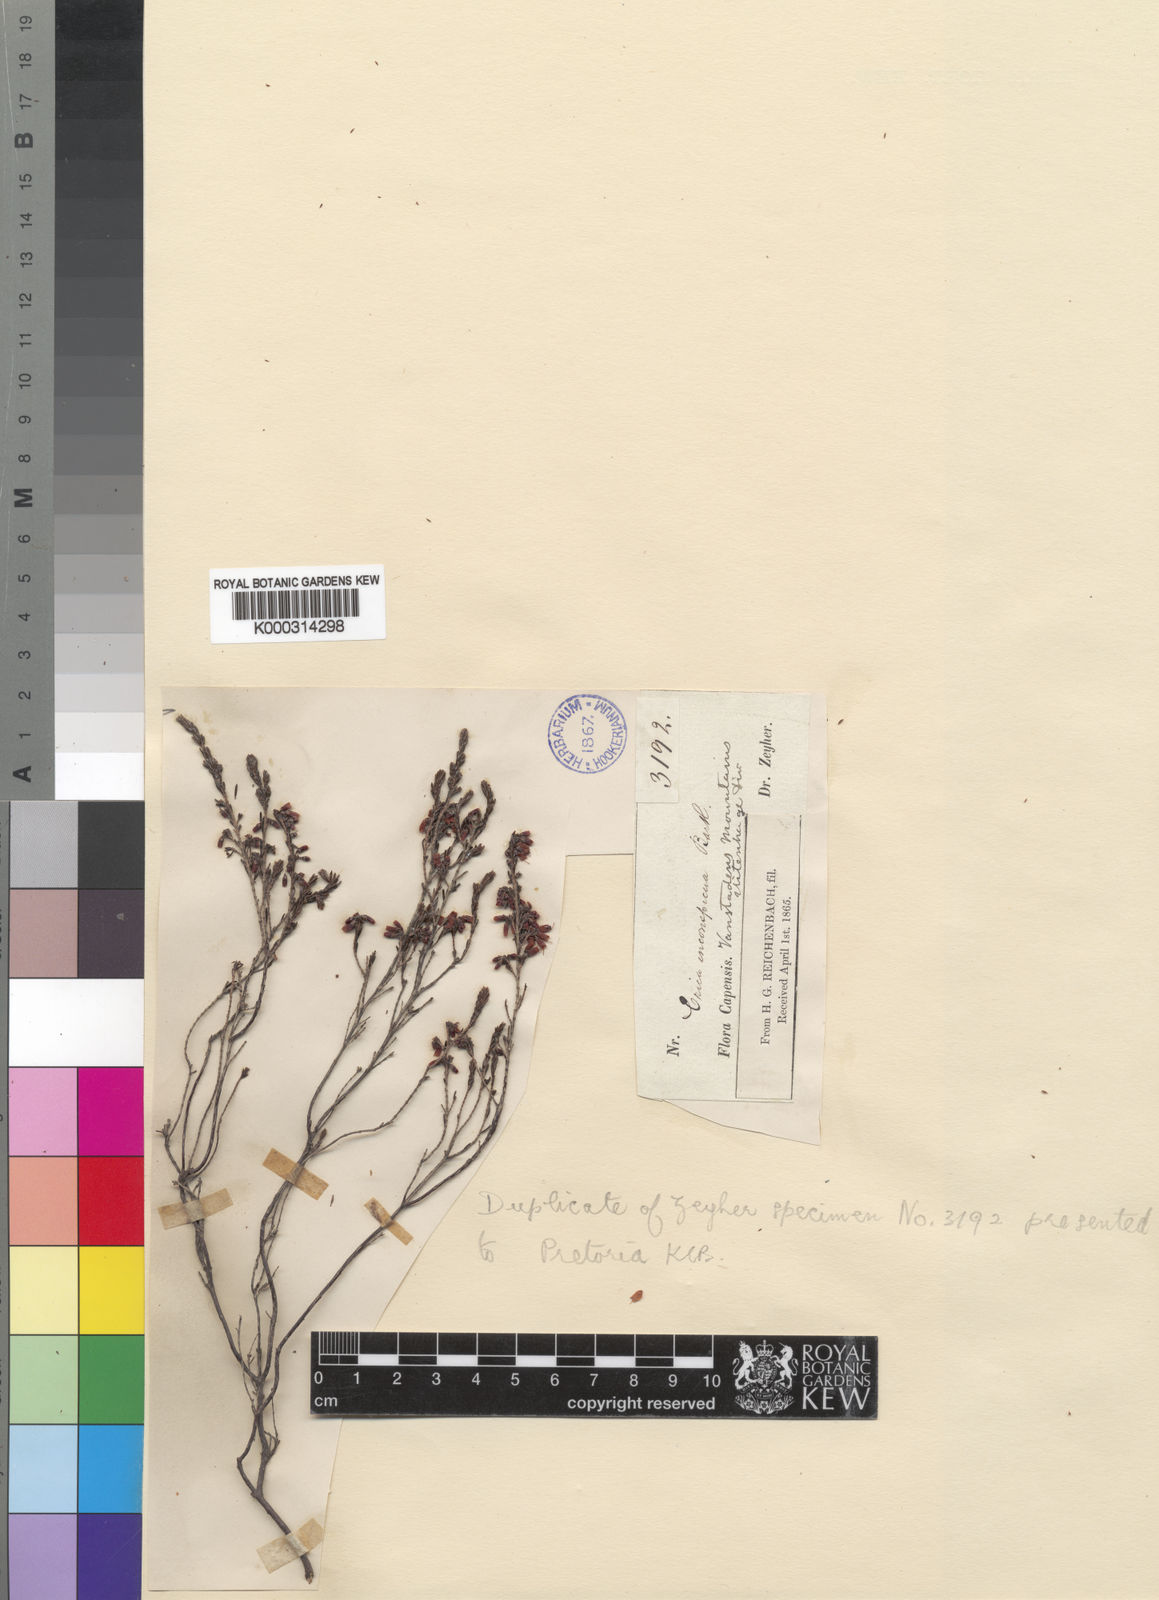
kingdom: Plantae
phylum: Tracheophyta
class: Magnoliopsida
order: Ericales
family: Ericaceae
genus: Erica
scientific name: Erica unilateralis
